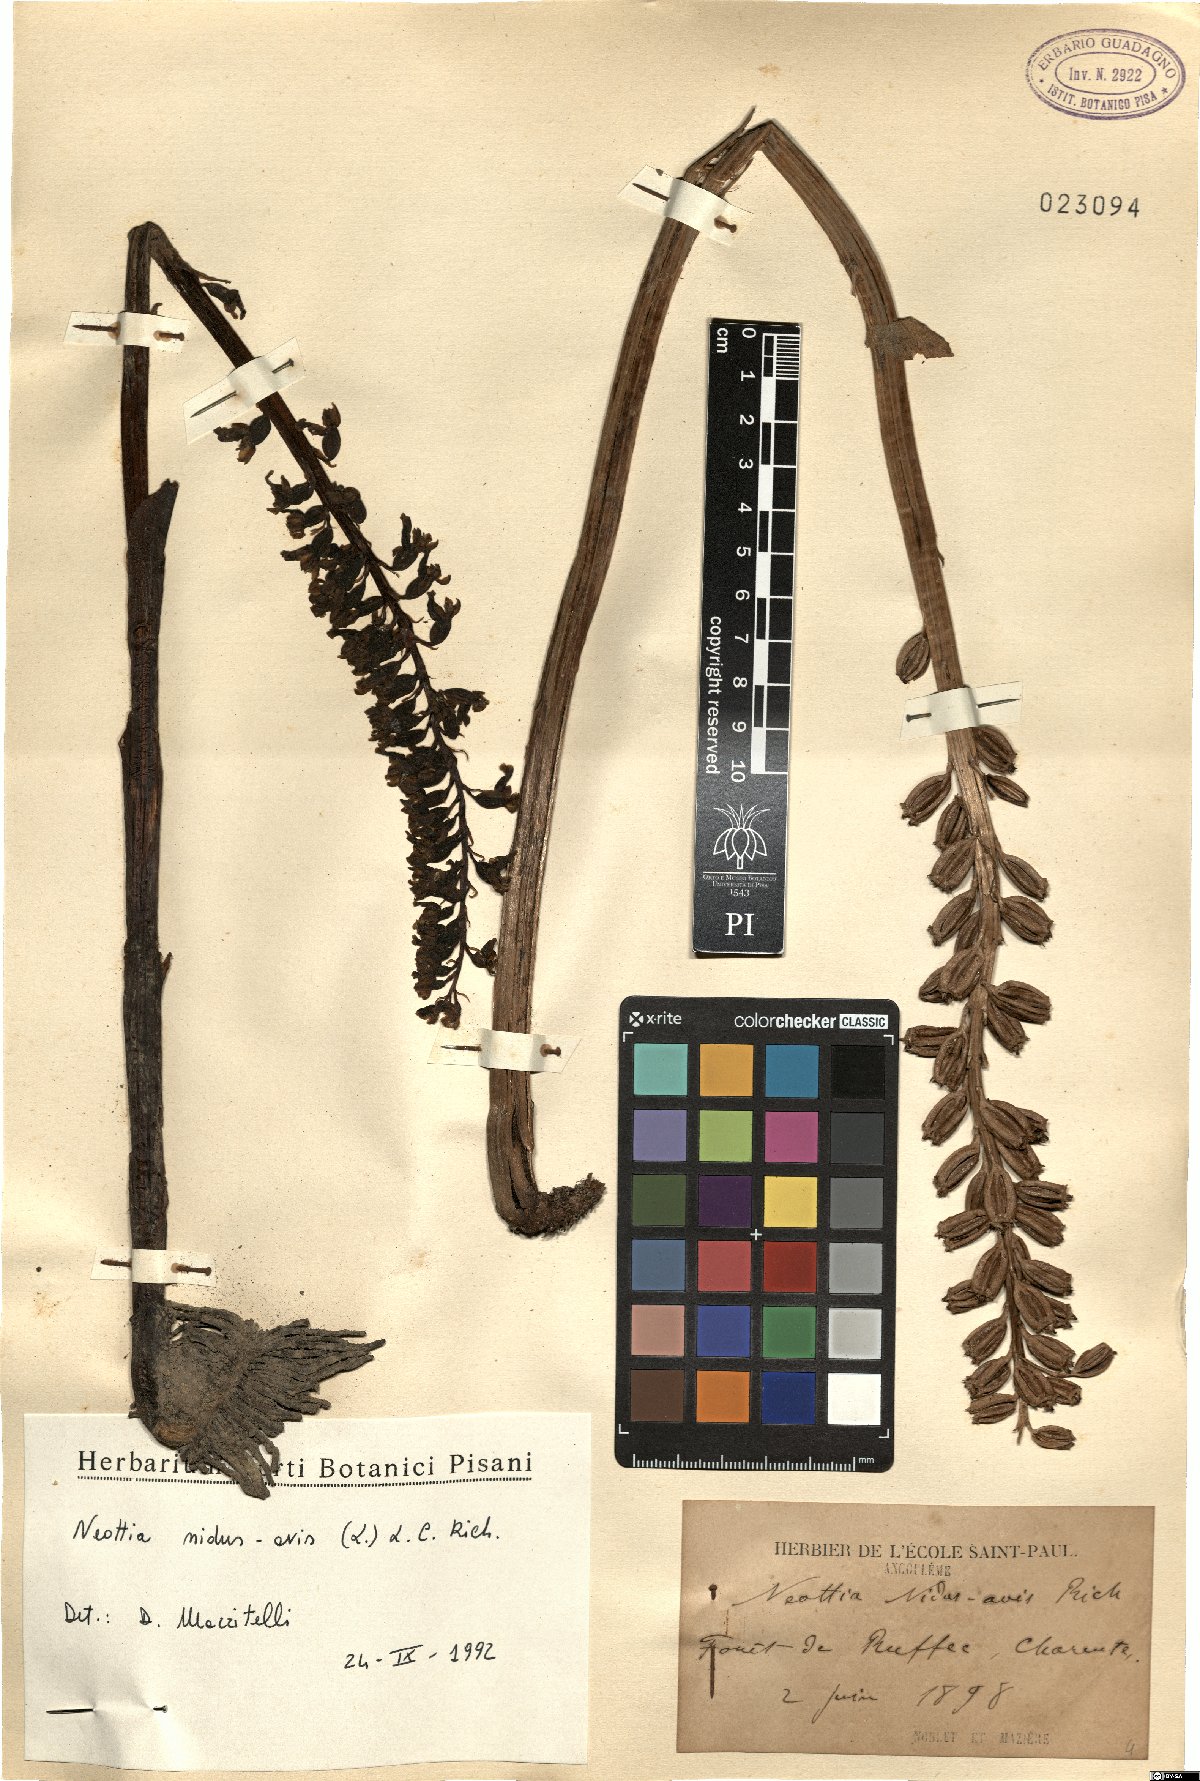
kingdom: Plantae
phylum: Tracheophyta
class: Liliopsida
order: Asparagales
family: Orchidaceae
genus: Neottia
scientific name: Neottia nidus-avis
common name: Bird's-nest orchid
